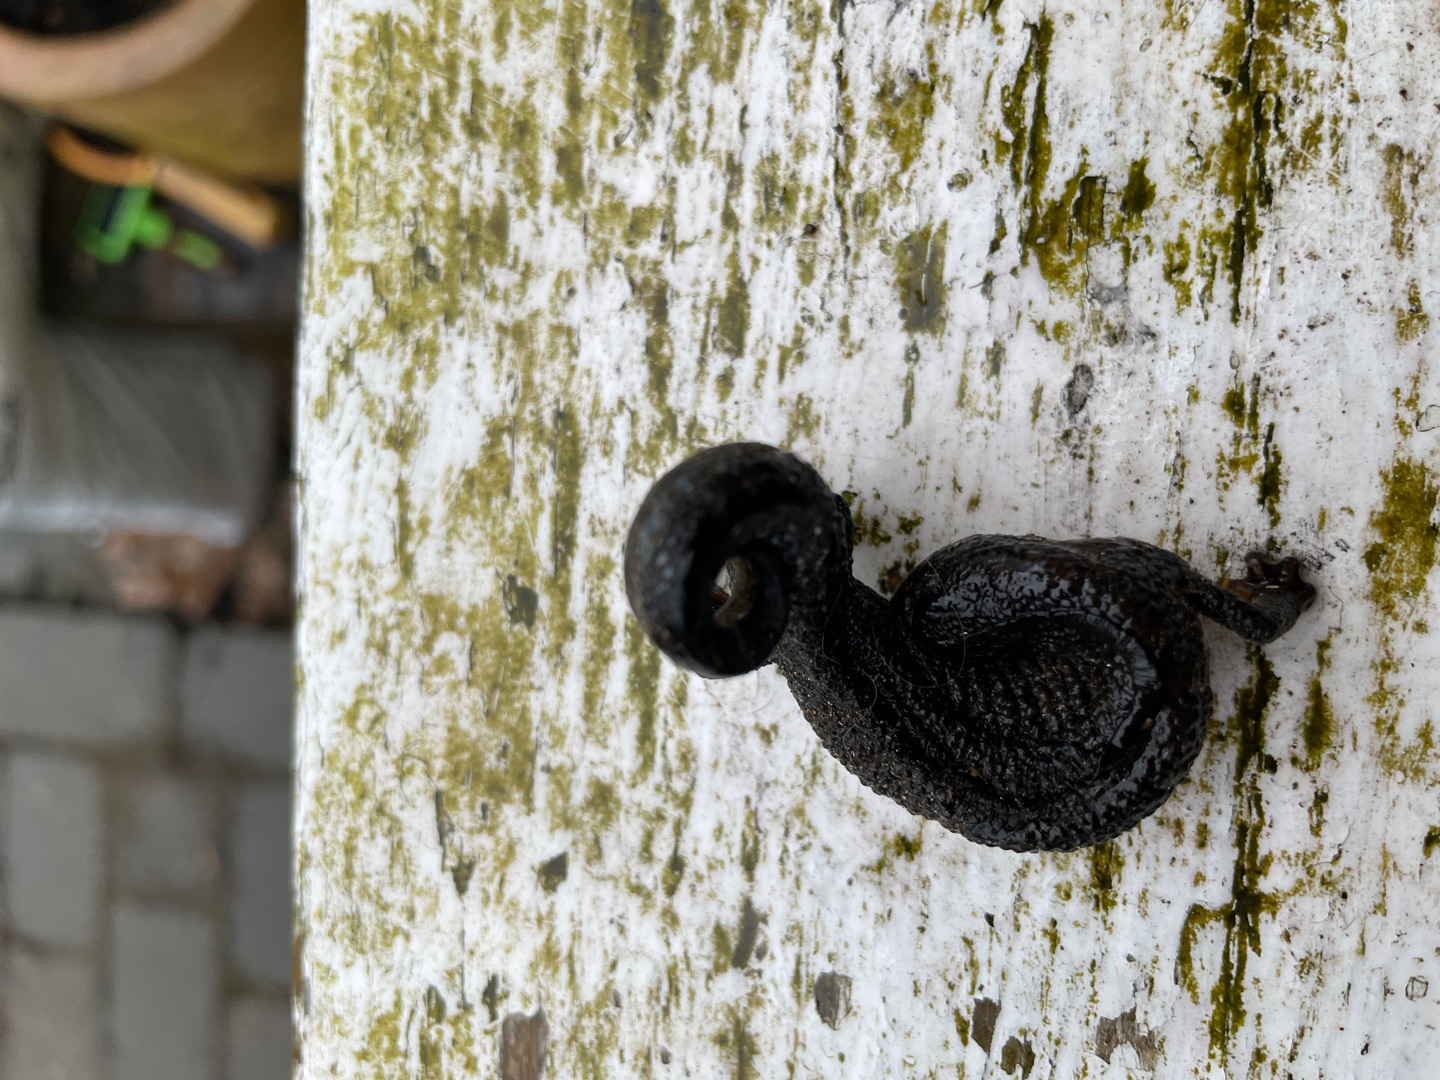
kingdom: Animalia
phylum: Chordata
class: Amphibia
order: Caudata
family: Salamandridae
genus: Triturus
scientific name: Triturus cristatus
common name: Stor vandsalamander
